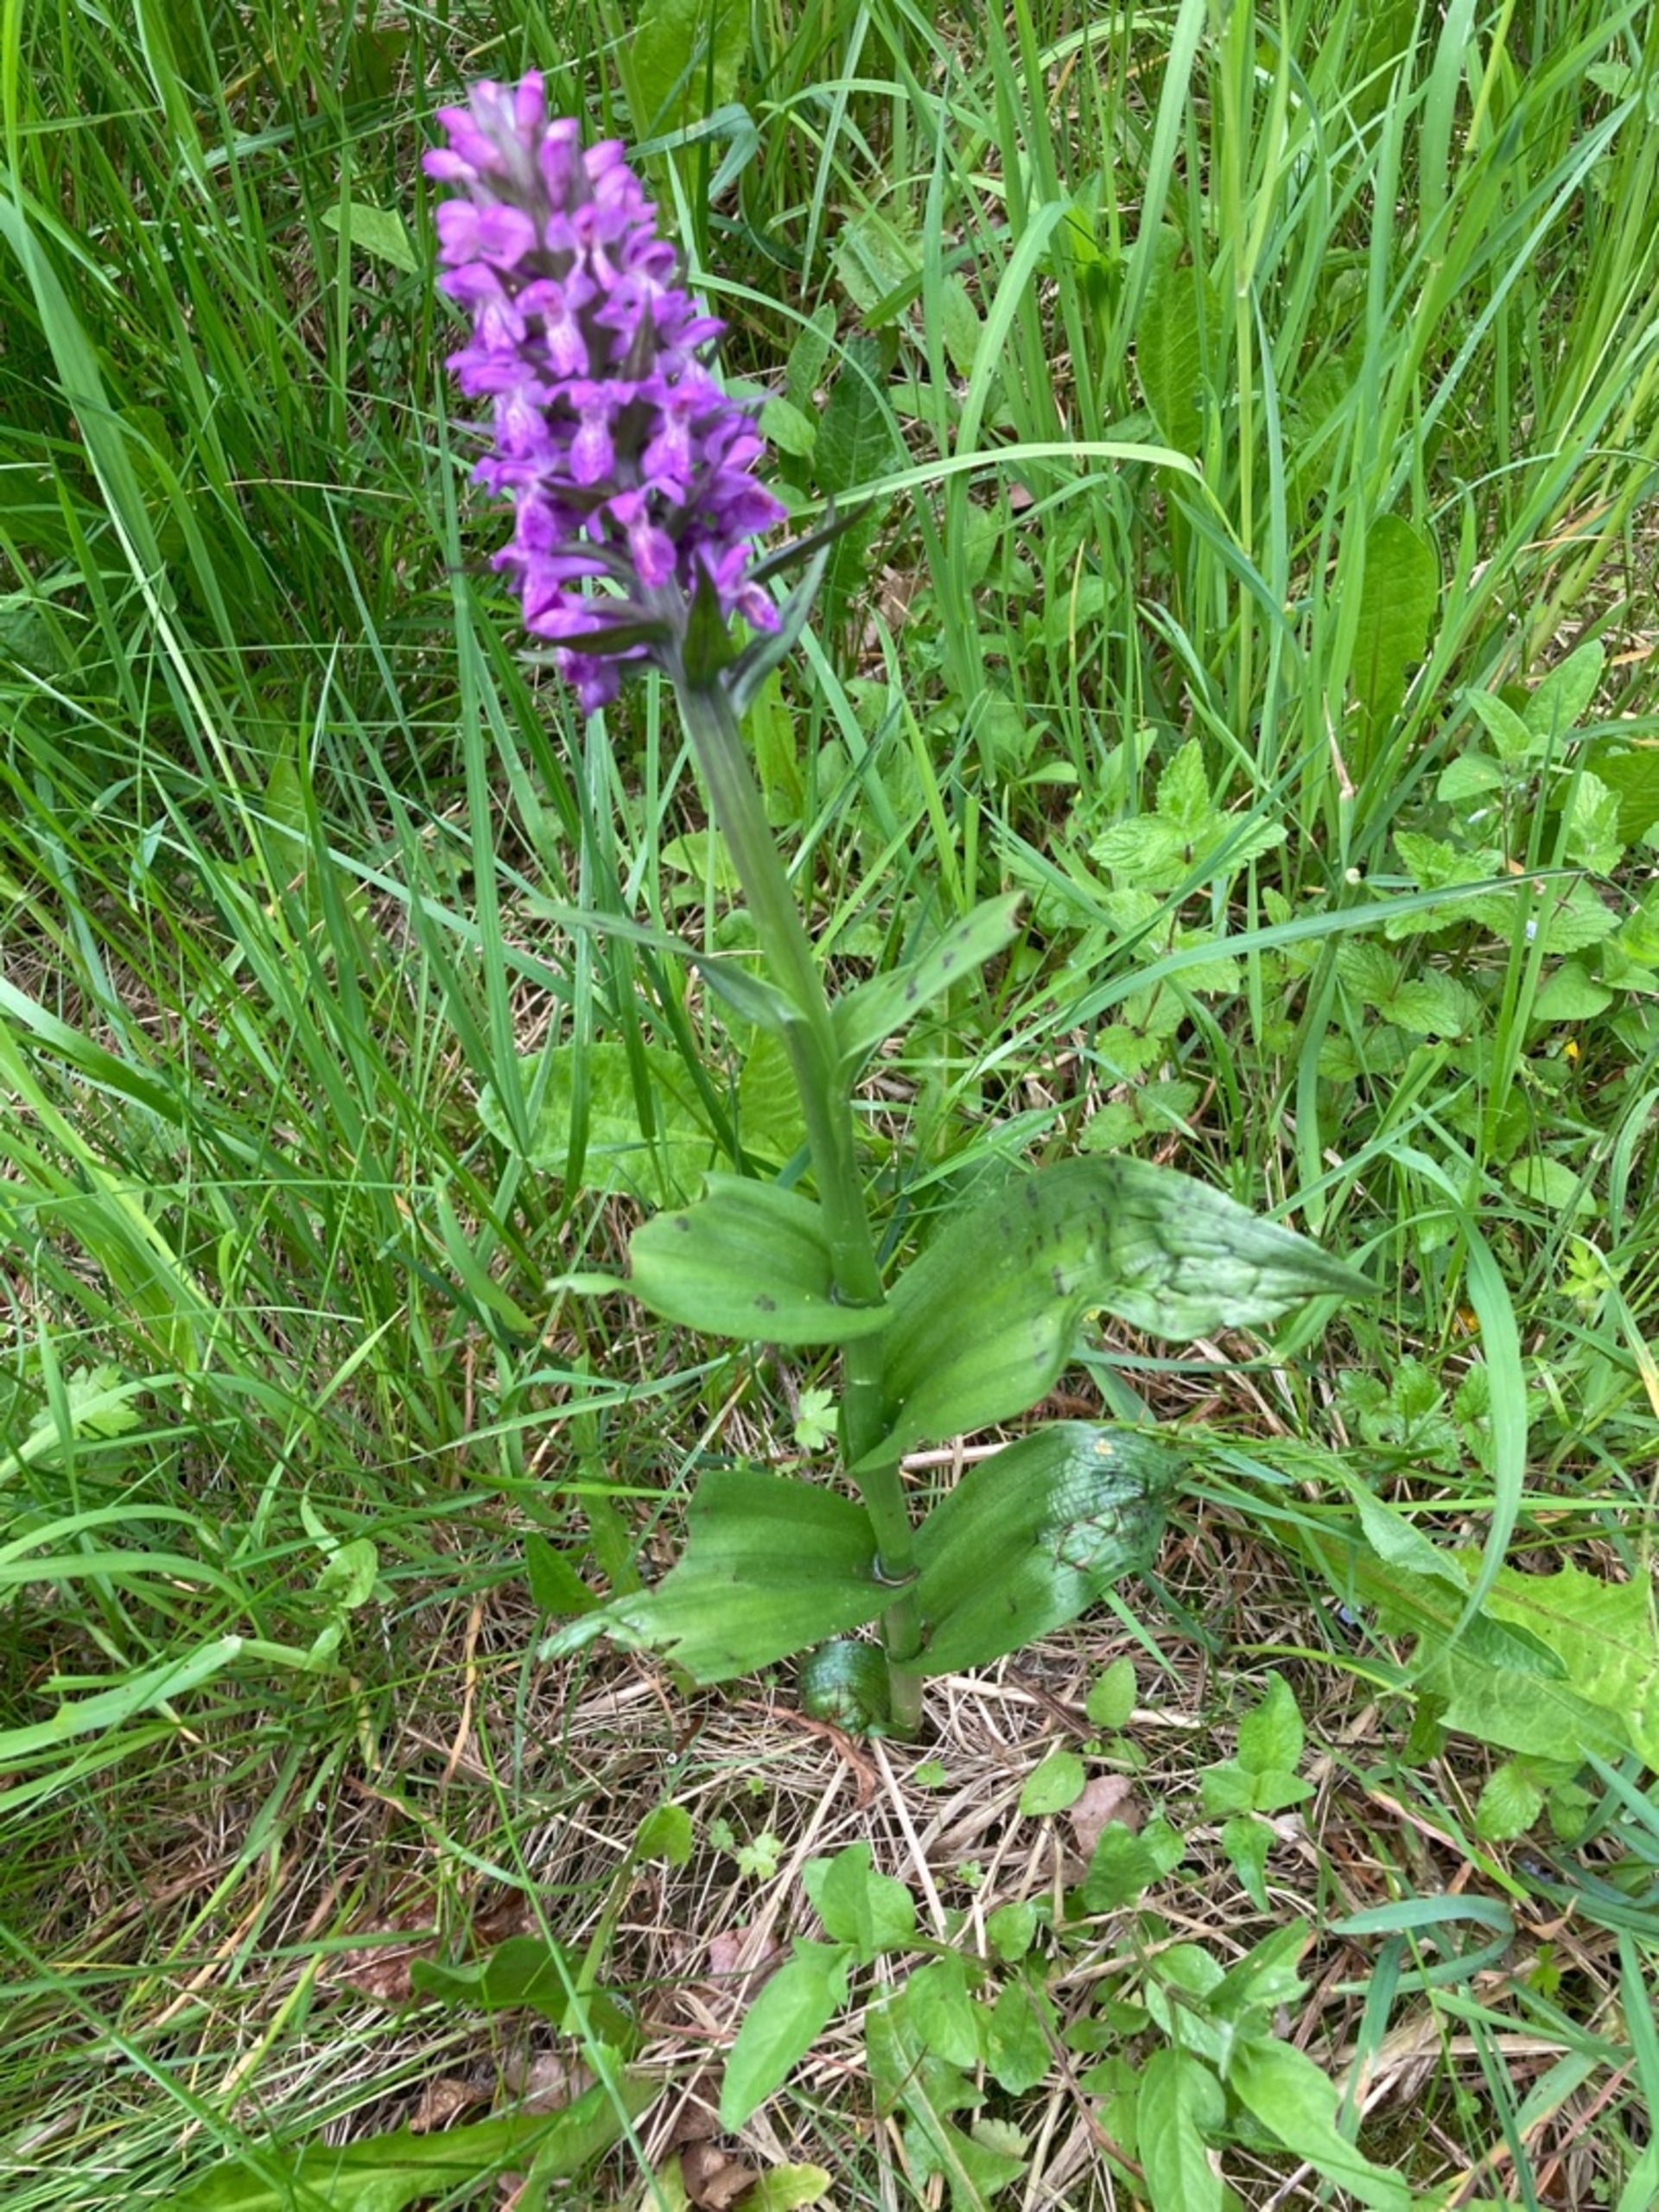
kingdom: Plantae
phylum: Tracheophyta
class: Liliopsida
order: Asparagales
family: Orchidaceae
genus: Dactylorhiza
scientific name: Dactylorhiza majalis
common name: Maj-gøgeurt
